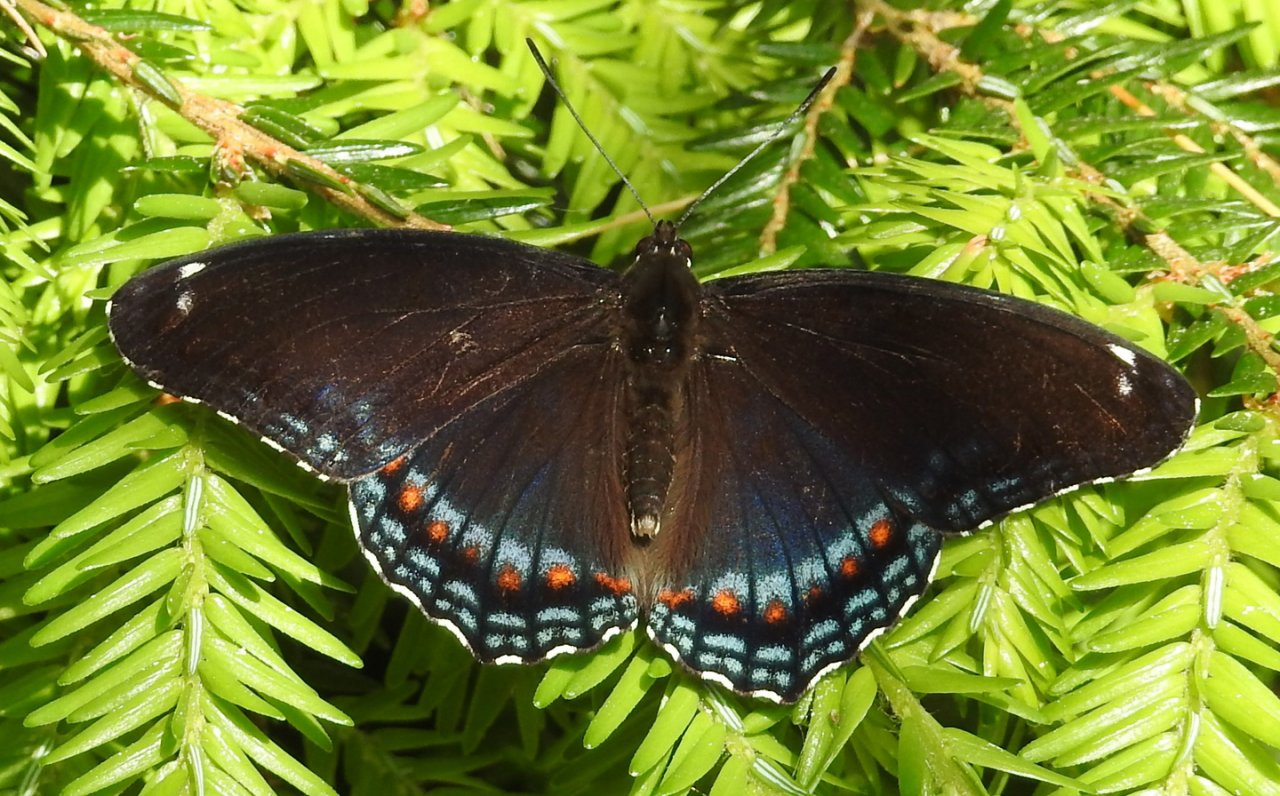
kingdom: Animalia
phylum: Arthropoda
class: Insecta
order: Lepidoptera
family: Nymphalidae
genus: Limenitis
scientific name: Limenitis
